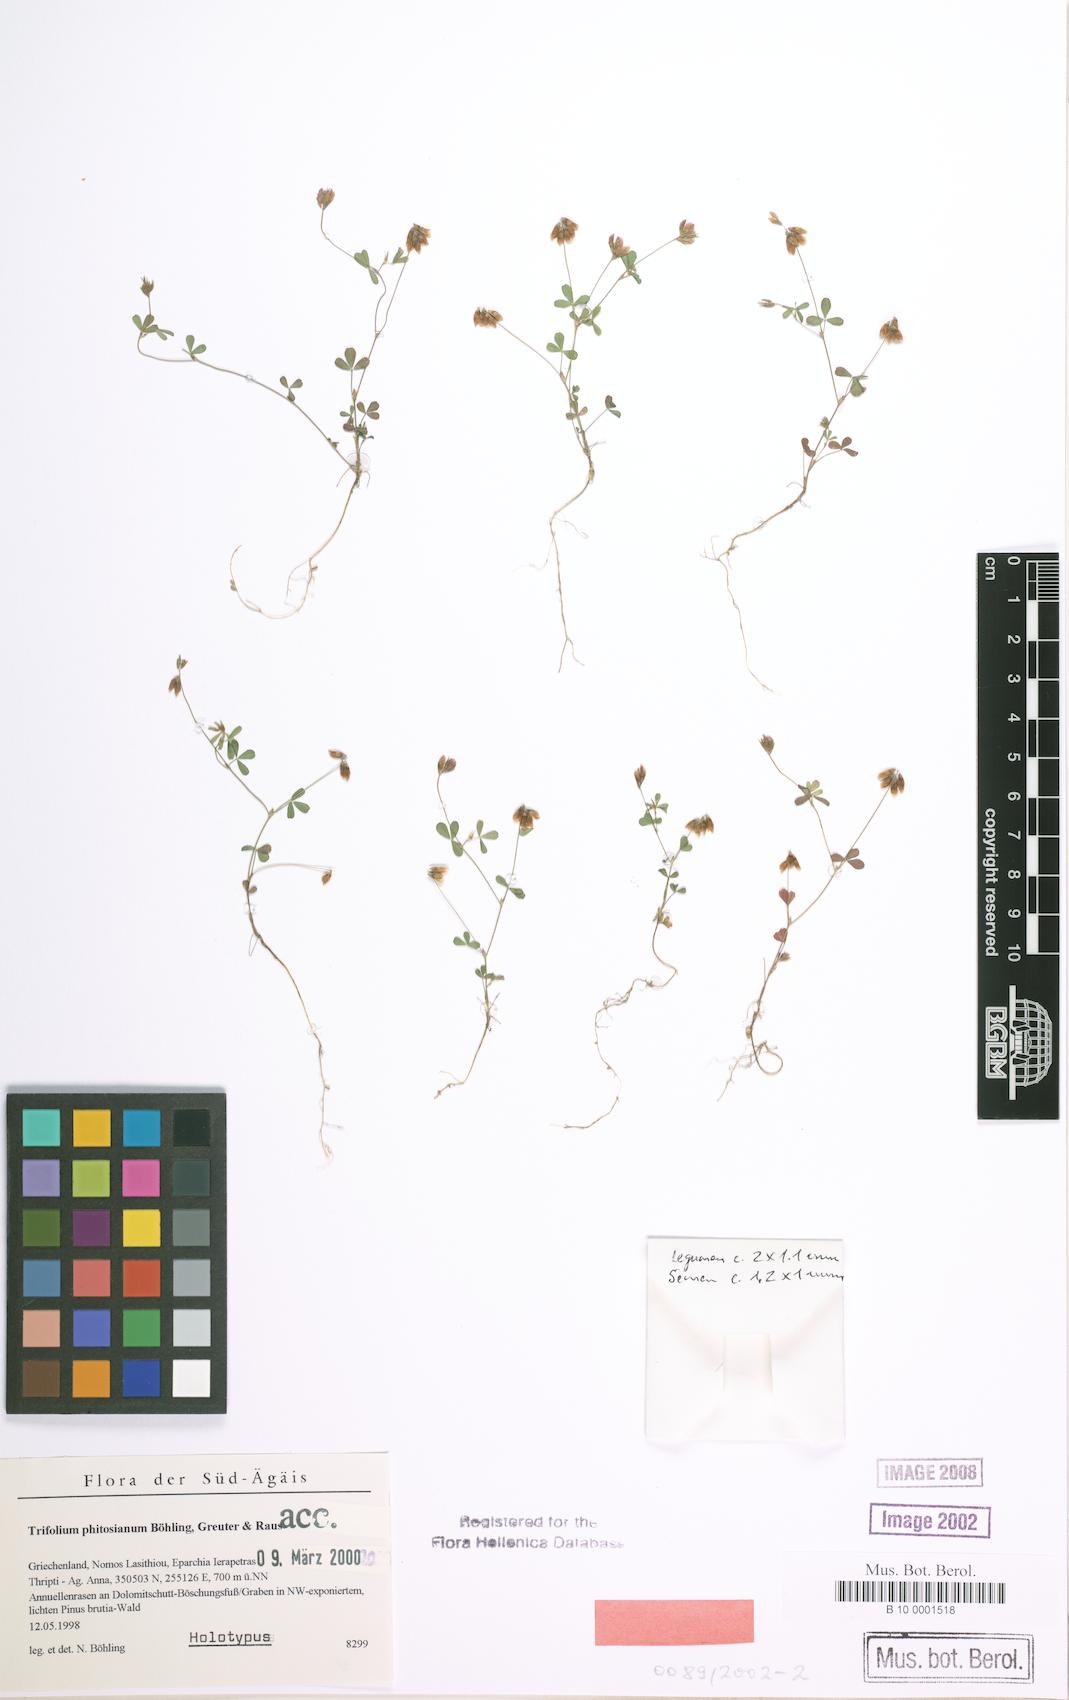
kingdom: Plantae
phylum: Tracheophyta
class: Magnoliopsida
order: Fabales
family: Fabaceae
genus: Trifolium
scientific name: Trifolium phitosianum
